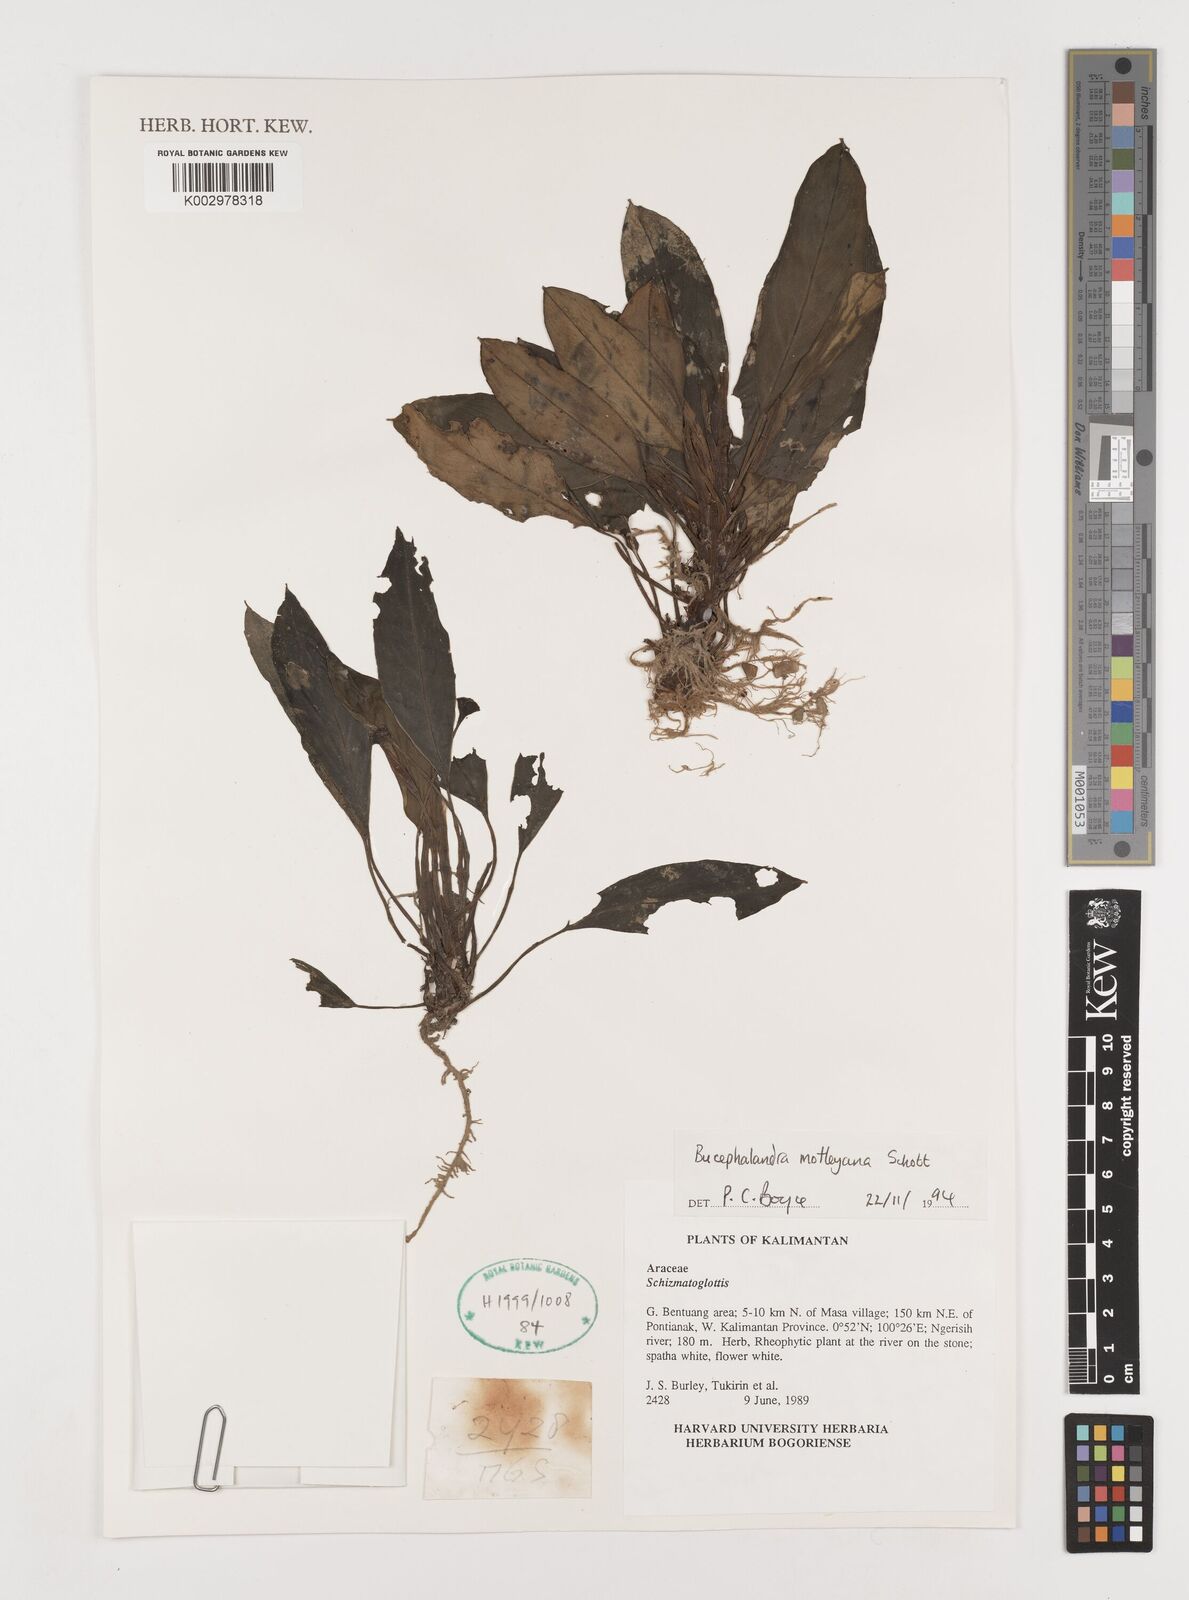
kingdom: Plantae
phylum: Tracheophyta
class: Liliopsida
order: Alismatales
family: Araceae
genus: Bucephalandra
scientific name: Bucephalandra motleyana
